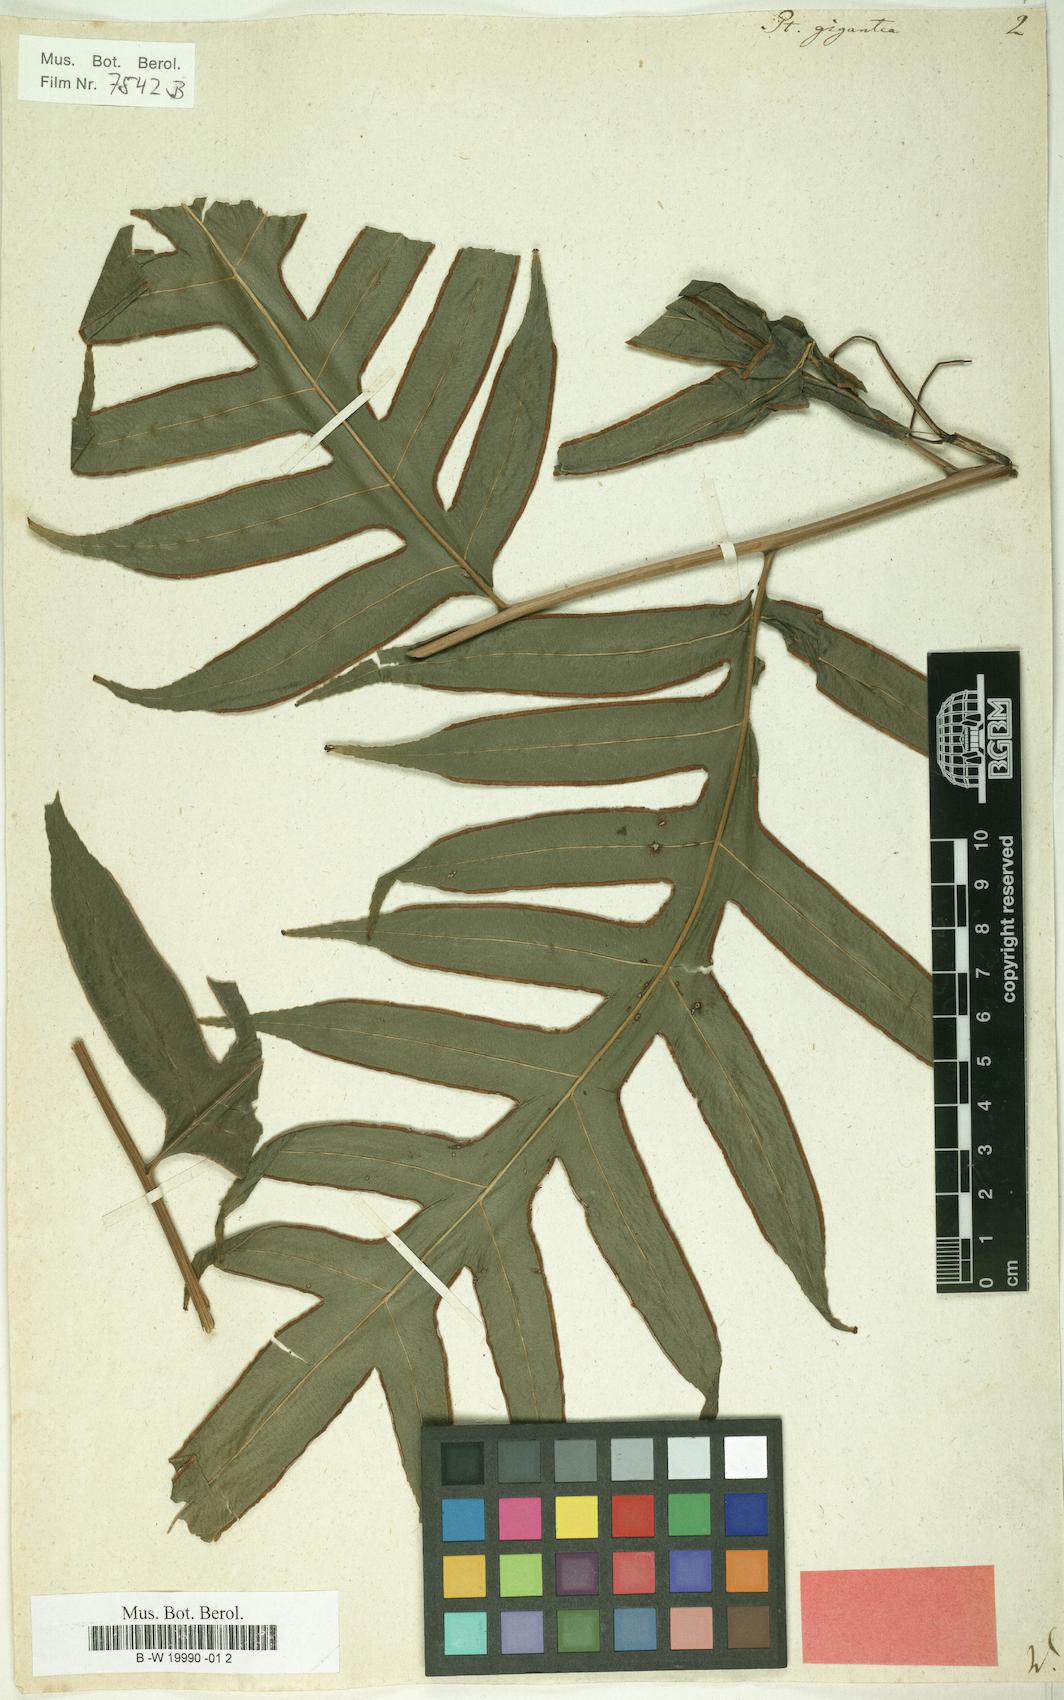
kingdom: Plantae
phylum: Tracheophyta
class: Polypodiopsida
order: Polypodiales
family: Pteridaceae
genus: Pteris
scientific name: Pteris gigantea
